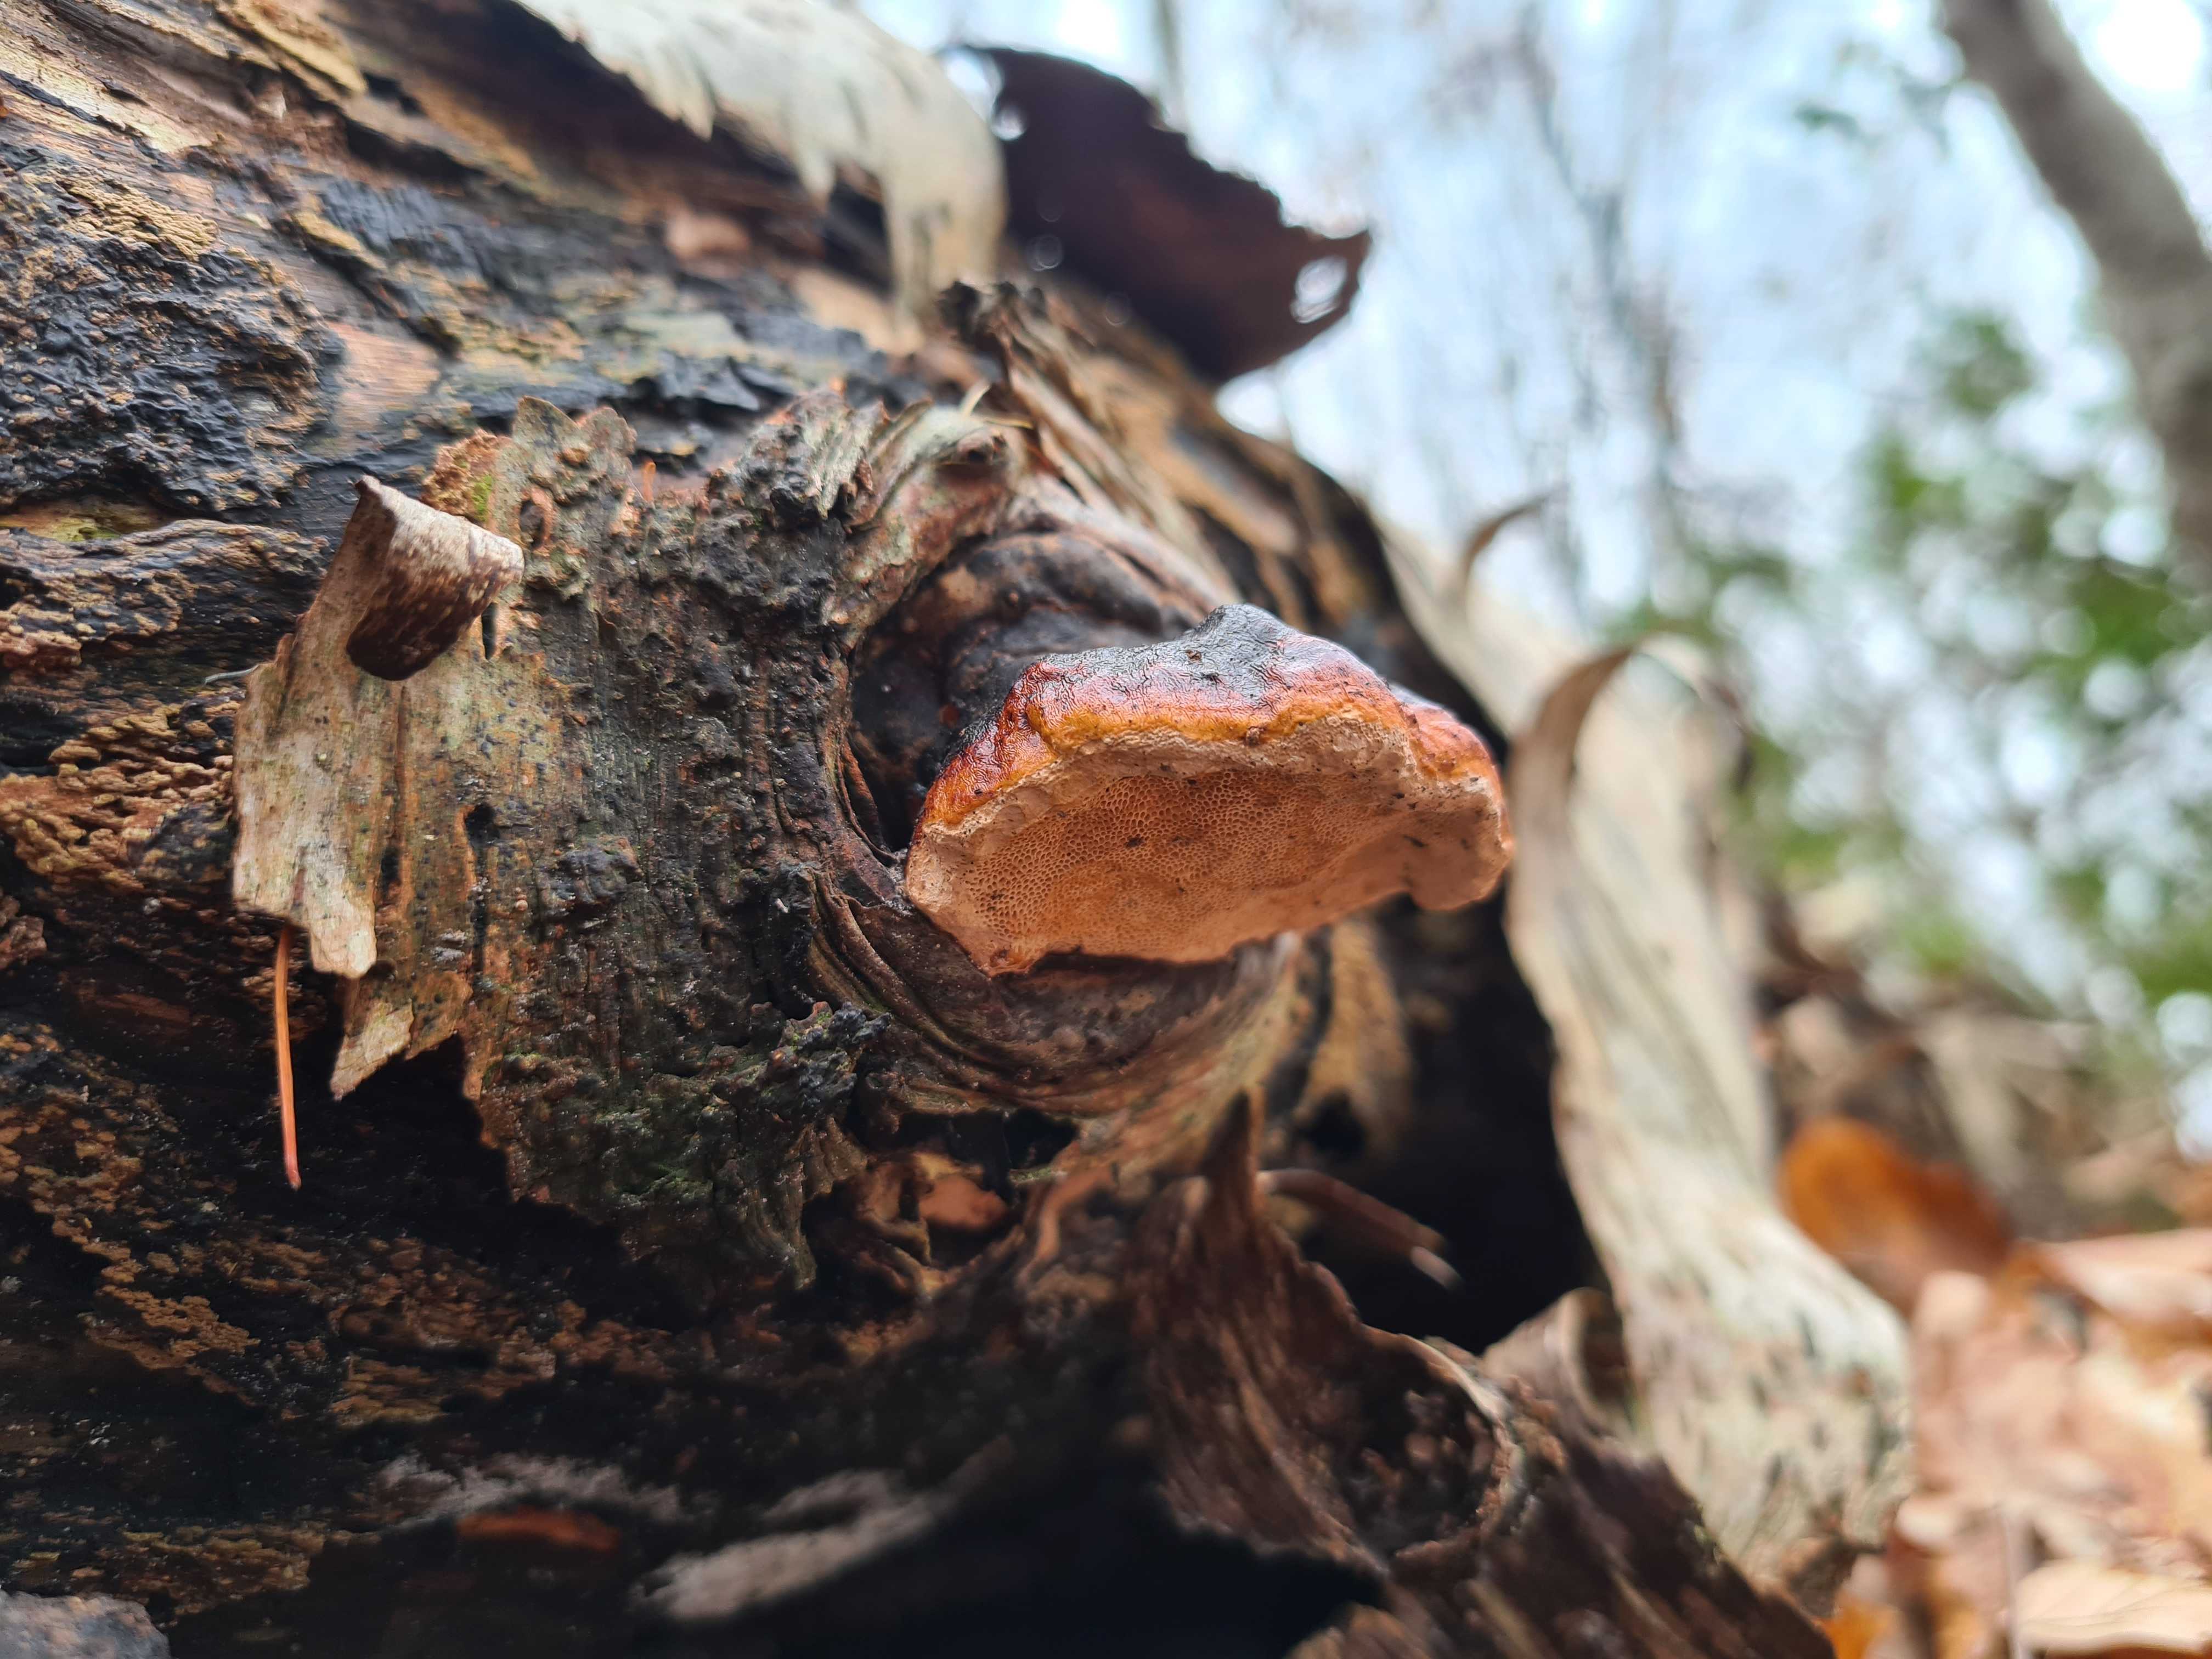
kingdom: Fungi
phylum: Basidiomycota
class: Agaricomycetes
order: Polyporales
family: Fomitopsidaceae
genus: Fomitopsis
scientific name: Fomitopsis pinicola
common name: randbæltet hovporesvamp
